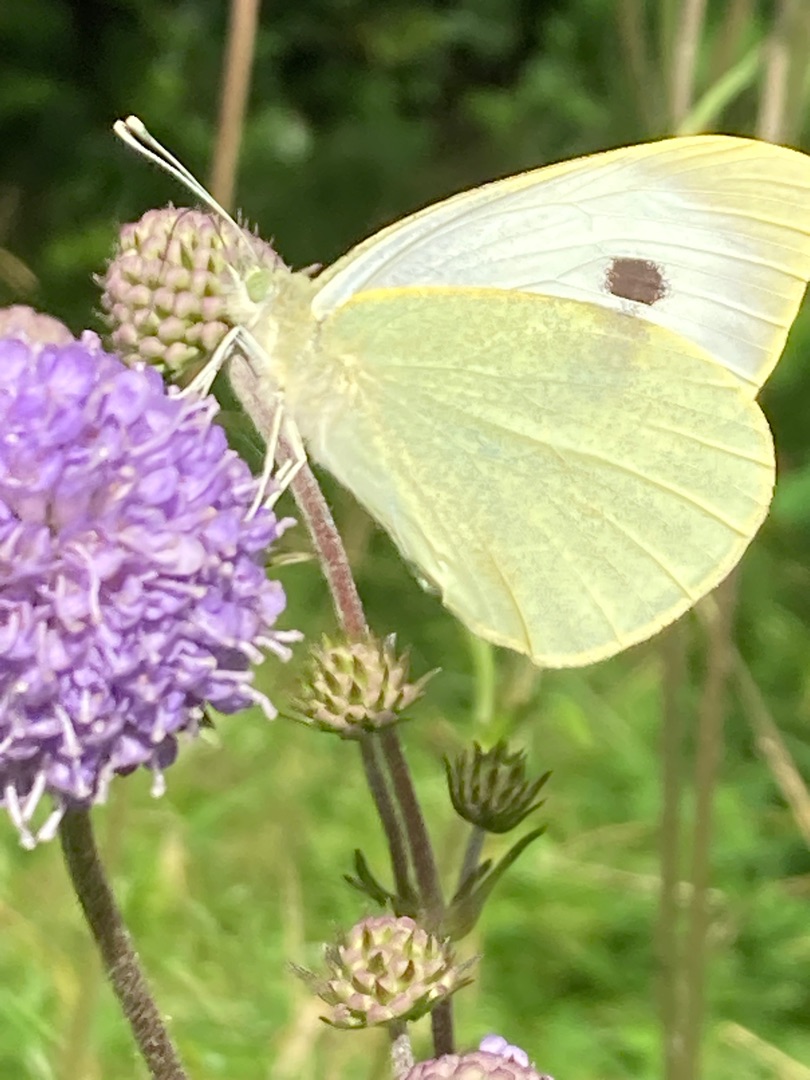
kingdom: Animalia
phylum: Arthropoda
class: Insecta
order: Lepidoptera
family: Pieridae
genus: Pieris
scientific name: Pieris brassicae
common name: Stor kålsommerfugl
